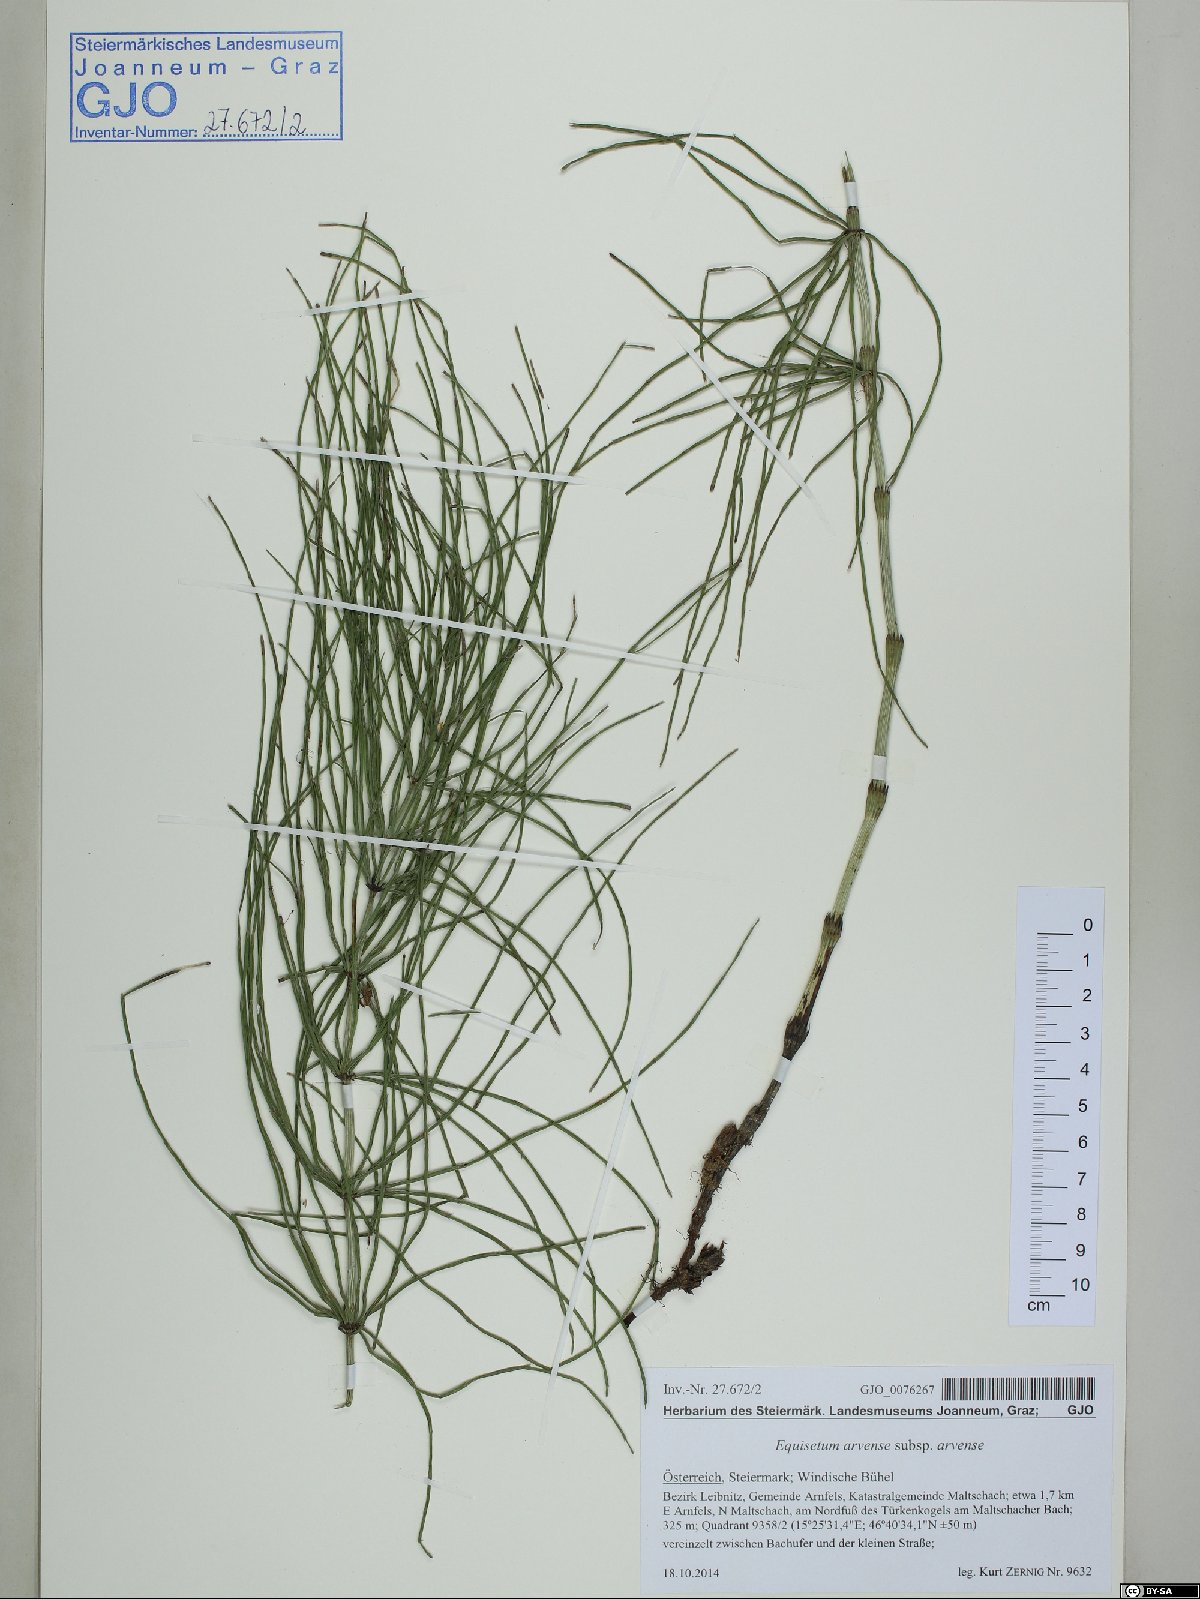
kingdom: Plantae
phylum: Tracheophyta
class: Polypodiopsida
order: Equisetales
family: Equisetaceae
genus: Equisetum
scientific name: Equisetum arvense
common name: Field horsetail
